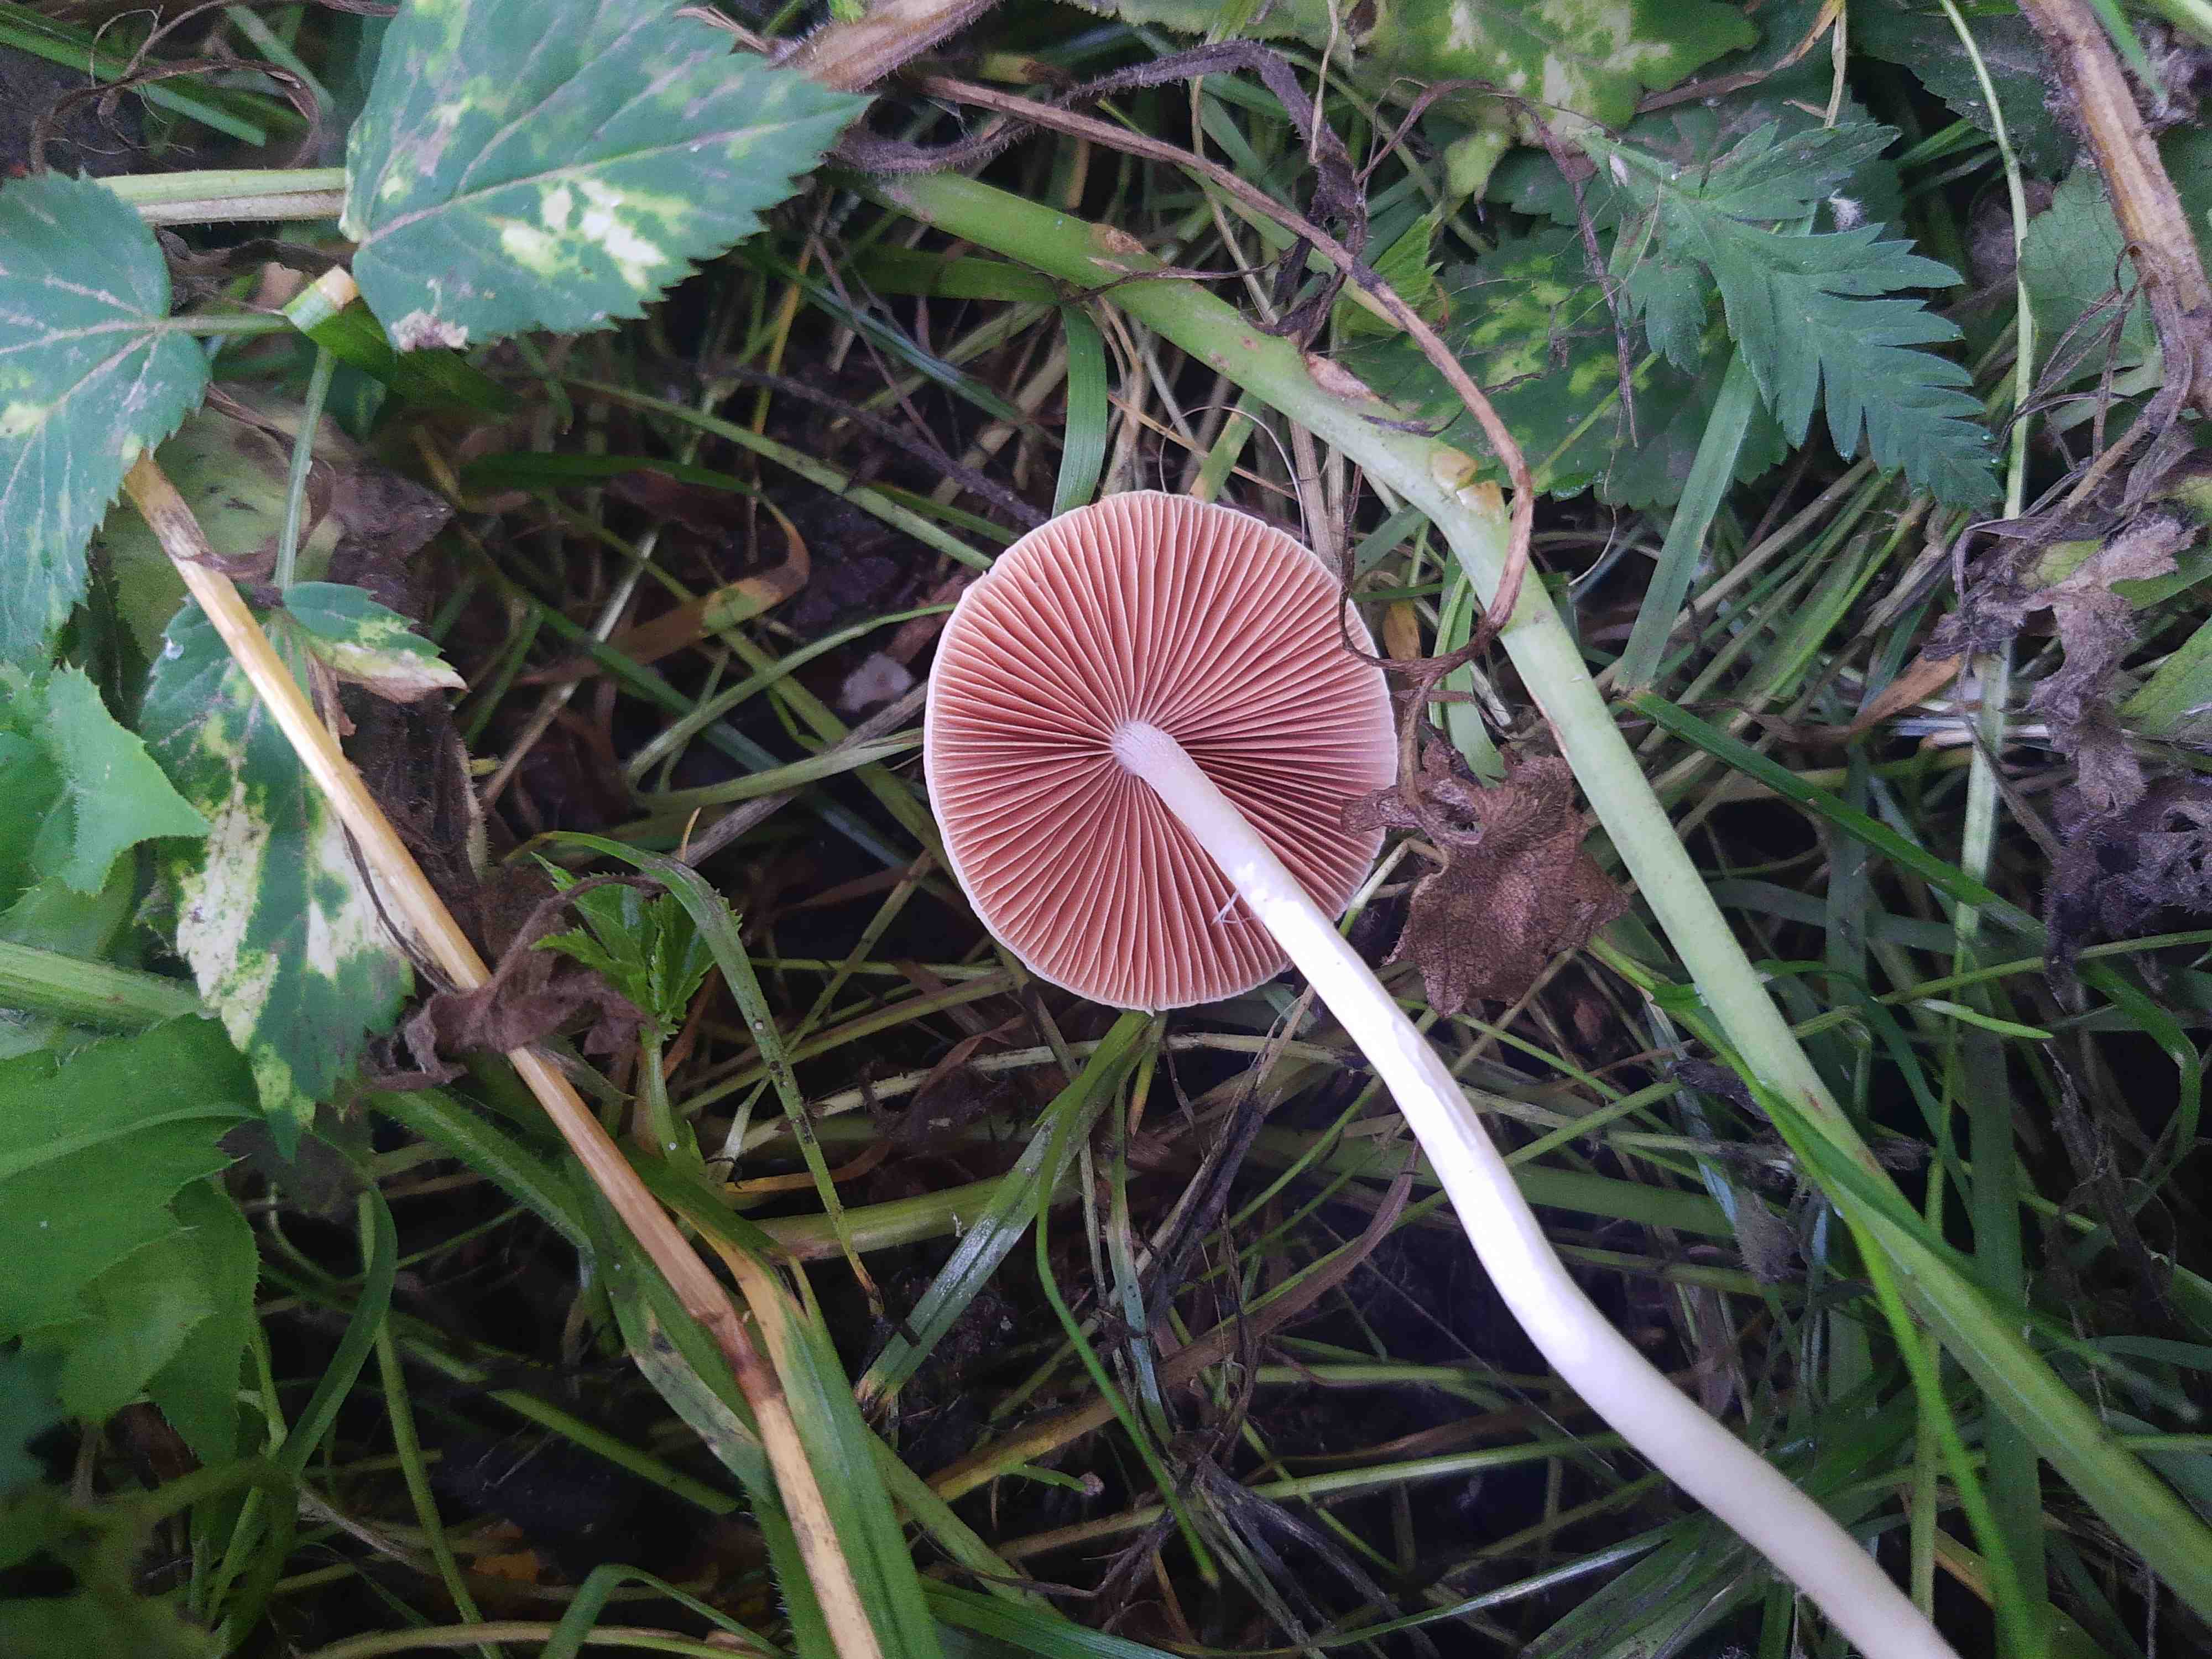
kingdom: Fungi
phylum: Basidiomycota
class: Agaricomycetes
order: Agaricales
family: Psathyrellaceae
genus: Coprinopsis
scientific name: Coprinopsis marcescibilis
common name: ruderat-blækhat
